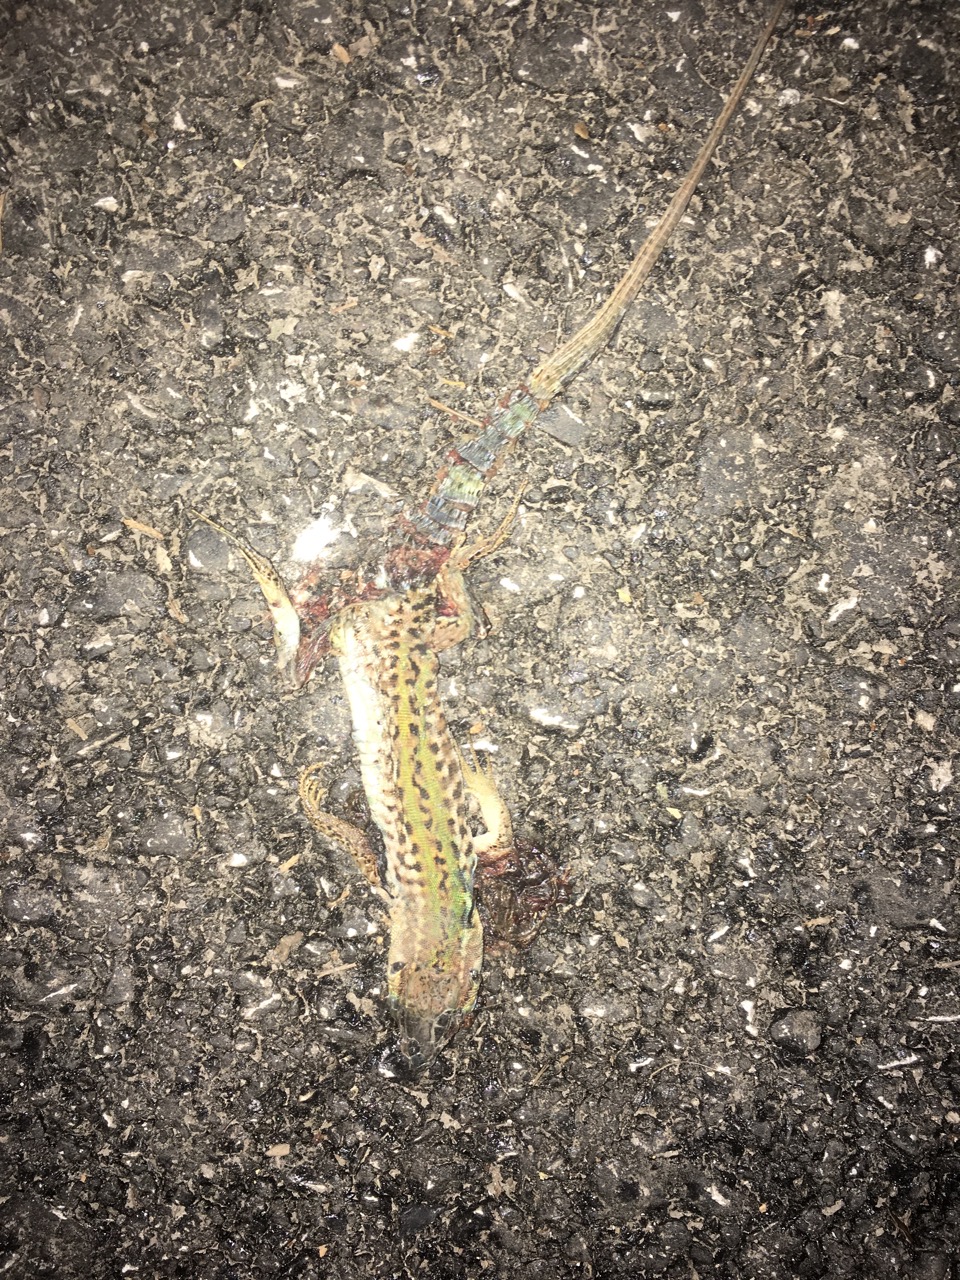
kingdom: Animalia
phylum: Chordata
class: Squamata
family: Lacertidae
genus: Podarcis
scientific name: Podarcis muralis
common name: Common wall lizard
